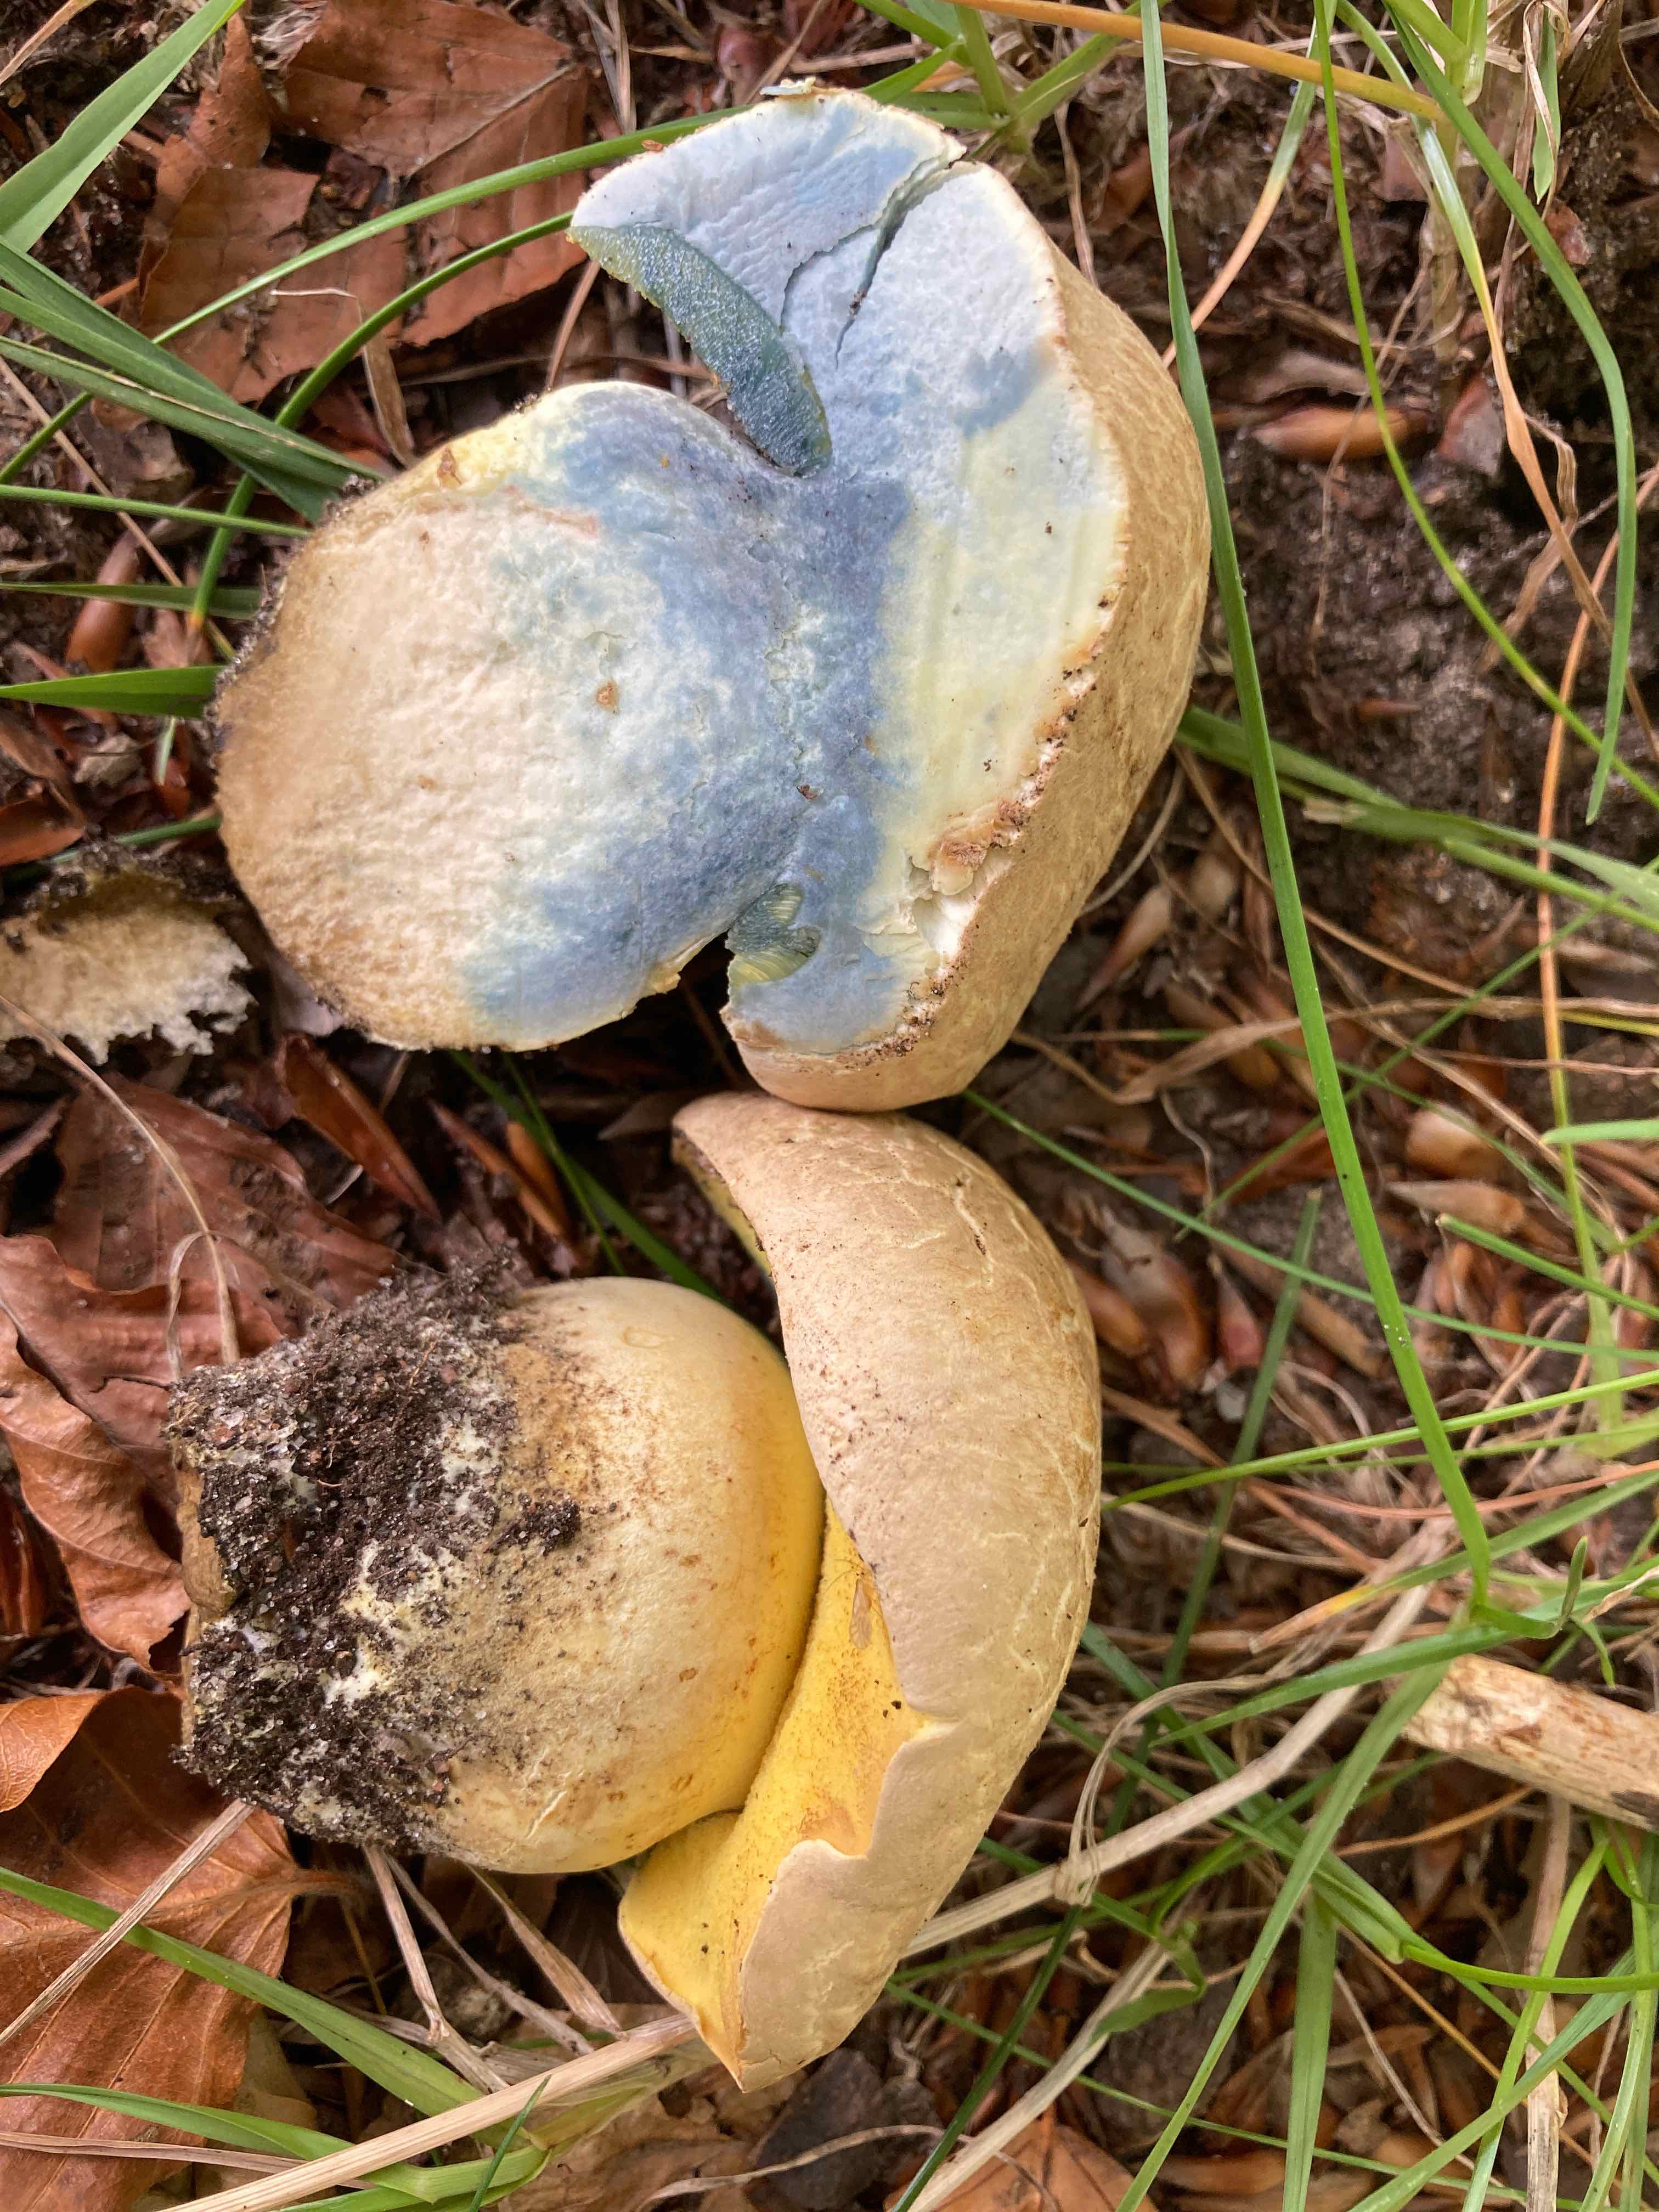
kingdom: Fungi
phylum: Basidiomycota
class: Agaricomycetes
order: Boletales
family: Boletaceae
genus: Caloboletus
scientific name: Caloboletus radicans
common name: rod-rørhat
